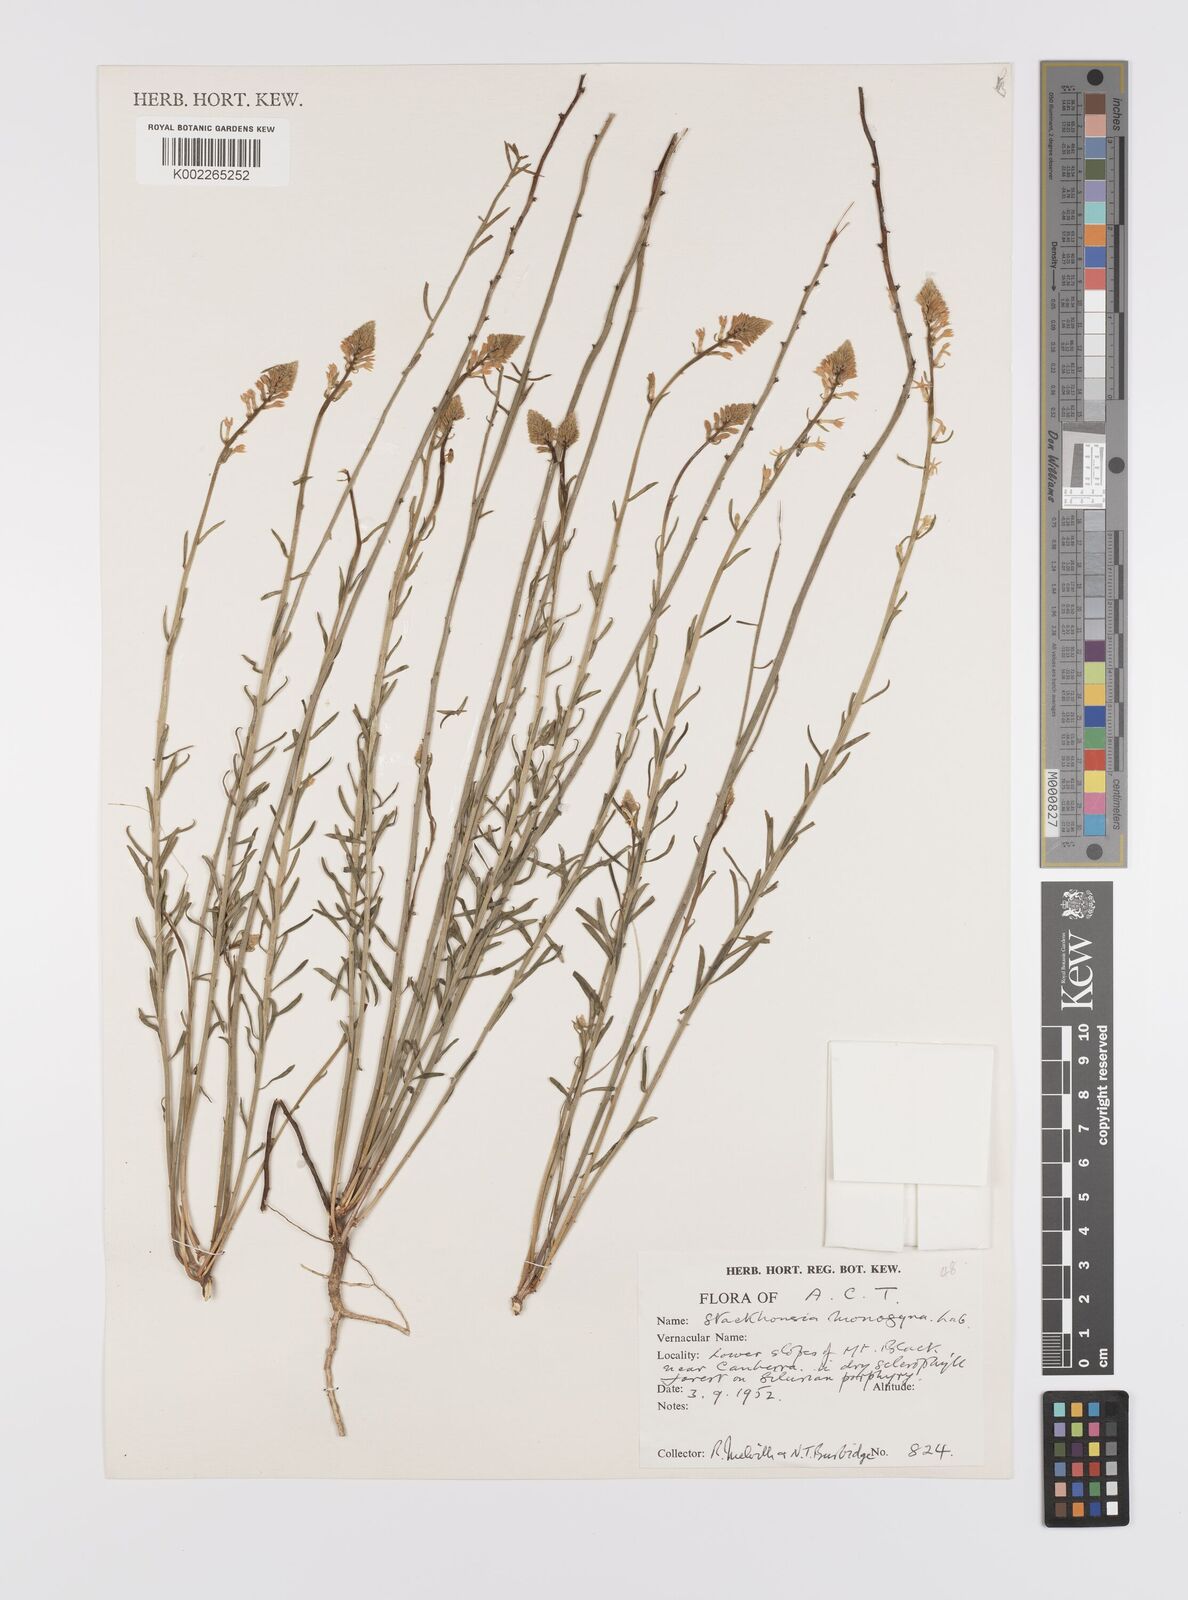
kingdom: Plantae
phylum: Tracheophyta
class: Magnoliopsida
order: Celastrales
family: Celastraceae
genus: Stackhousia
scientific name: Stackhousia monogyna
